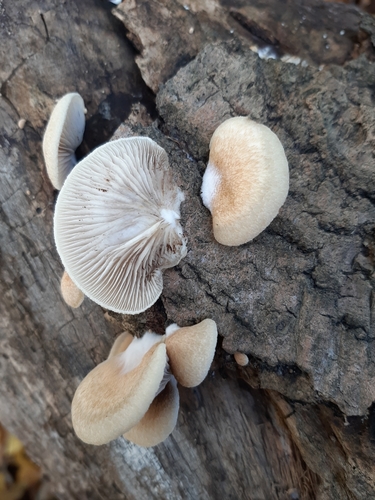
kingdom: Fungi
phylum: Basidiomycota
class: Agaricomycetes
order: Agaricales
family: Crepidotaceae
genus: Crepidotus
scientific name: Crepidotus mollis
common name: Peeling oysterling
